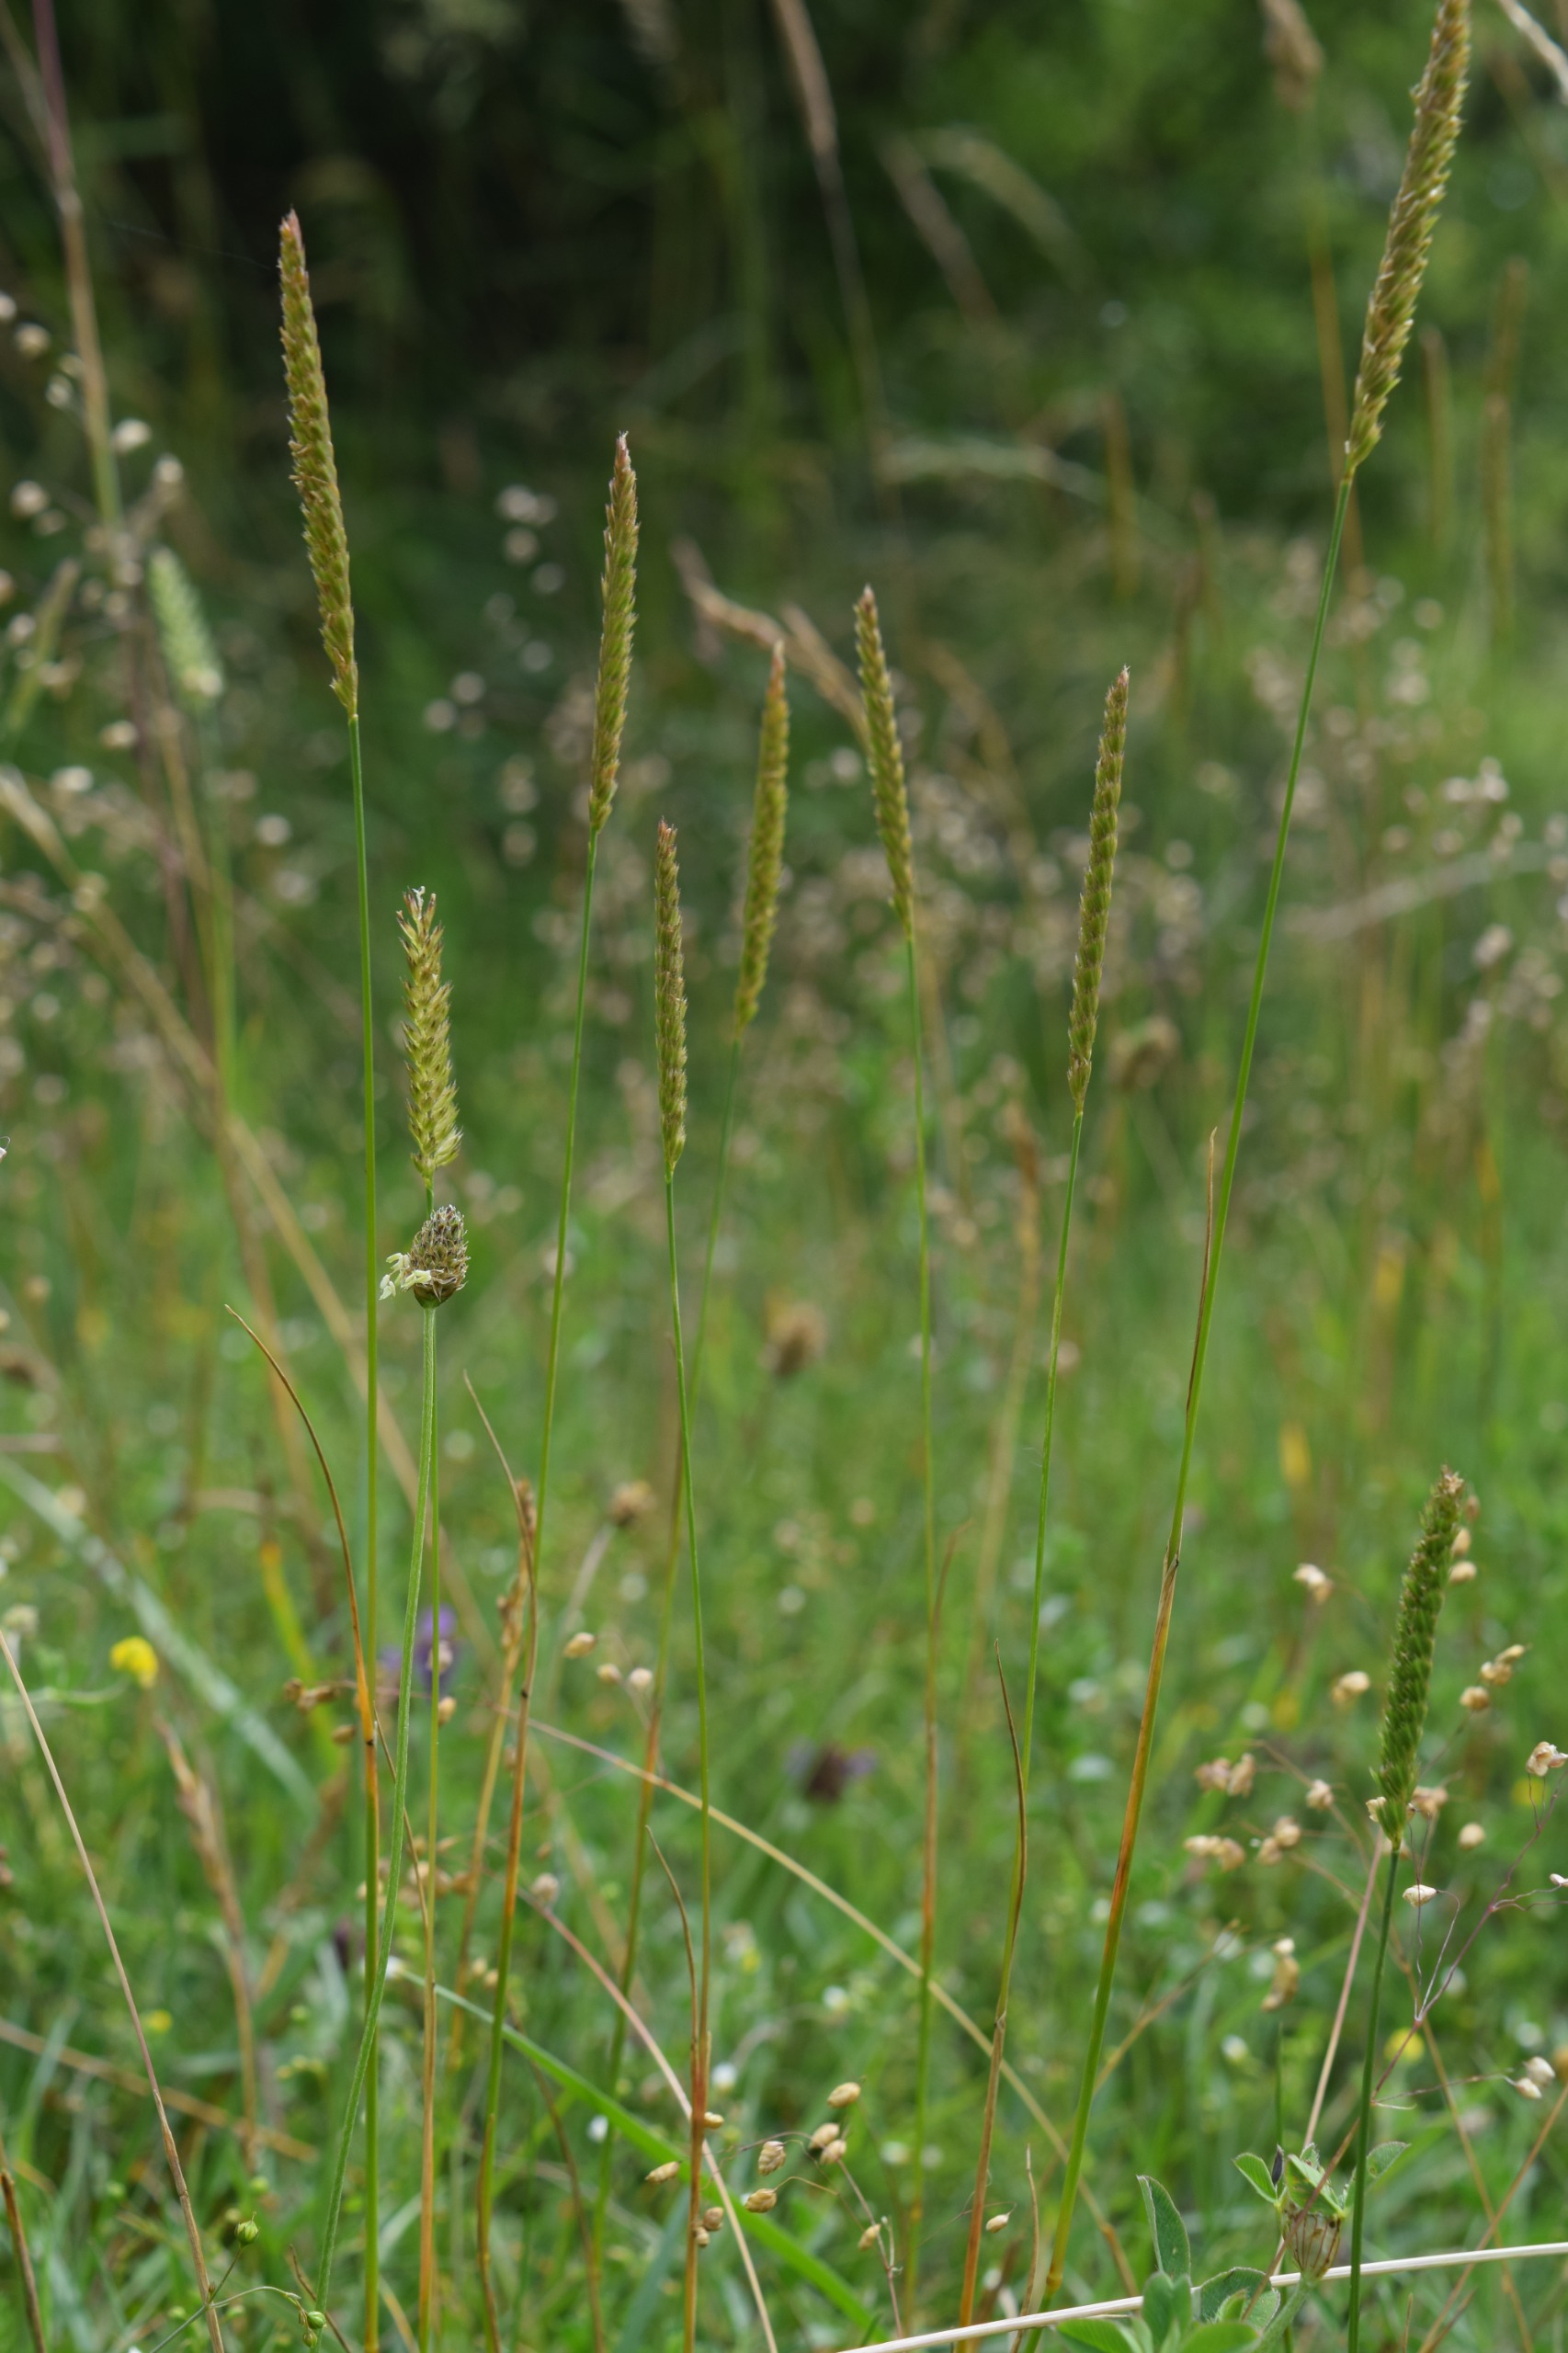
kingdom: Plantae
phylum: Tracheophyta
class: Liliopsida
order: Poales
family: Poaceae
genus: Cynosurus
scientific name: Cynosurus cristatus
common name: Kamgræs
